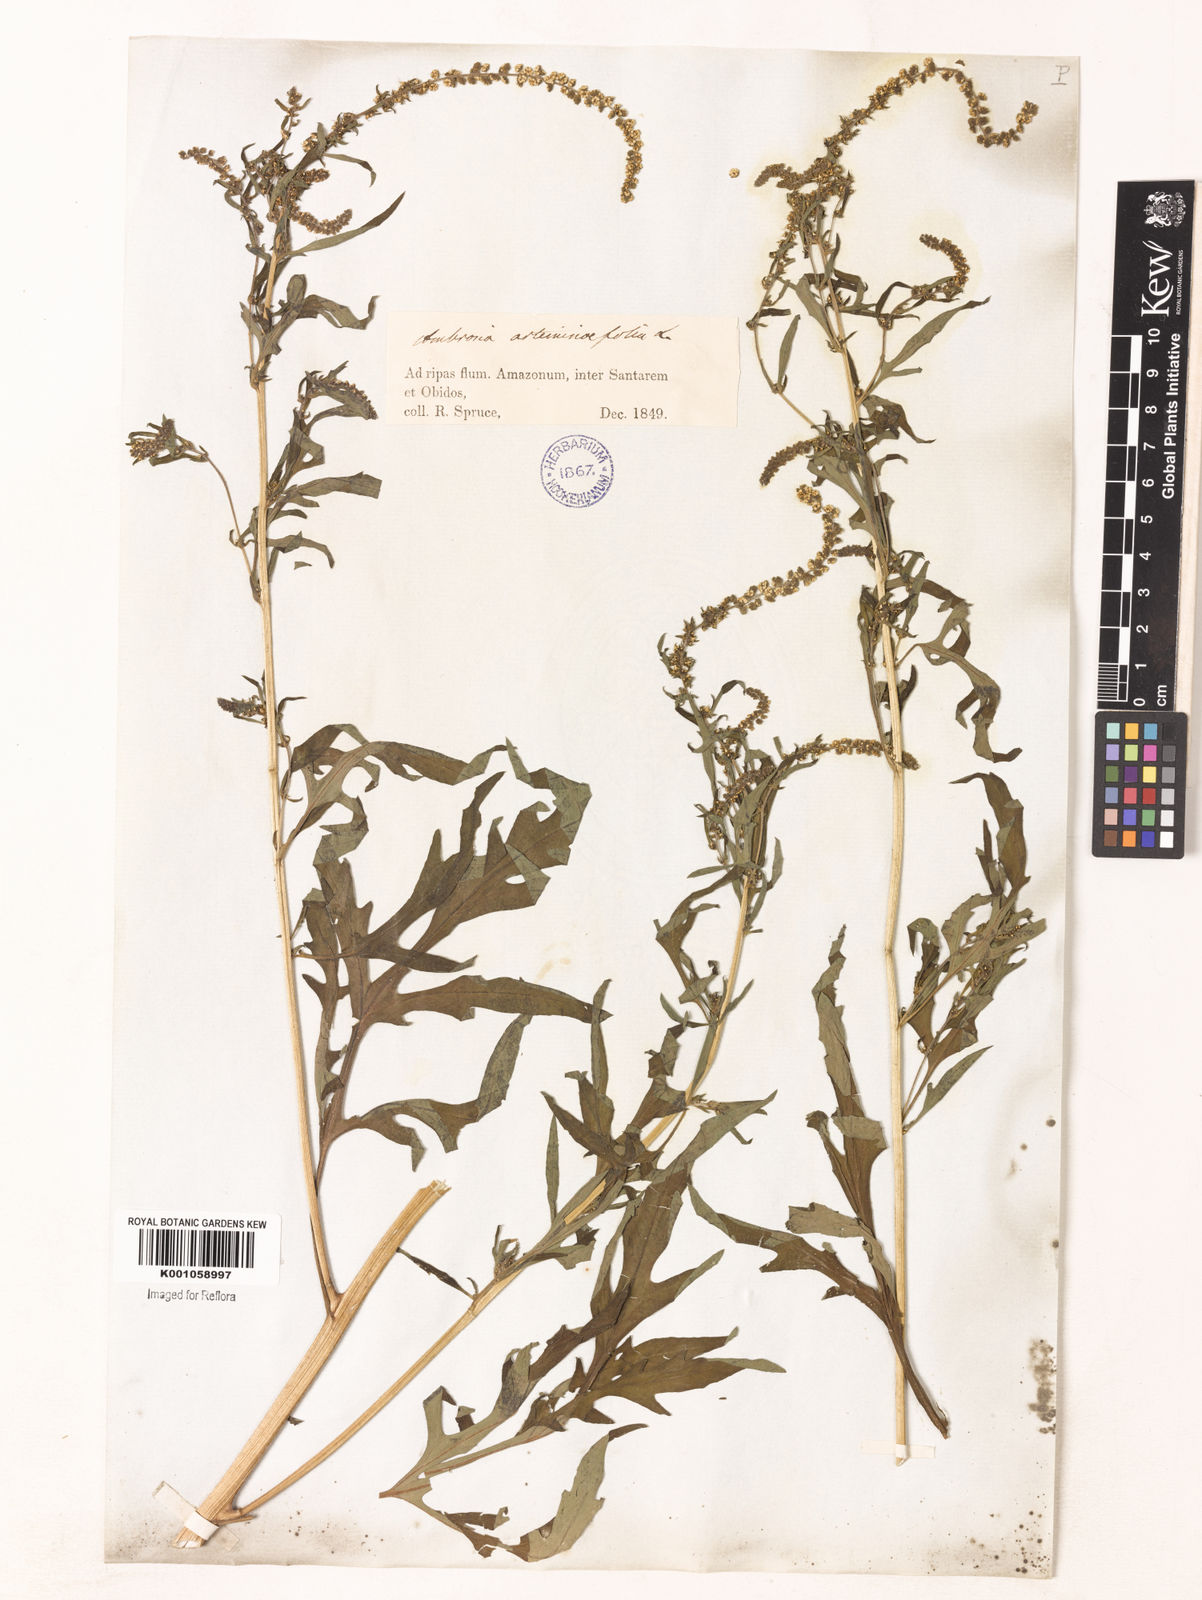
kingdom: Plantae
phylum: Tracheophyta
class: Magnoliopsida
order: Asterales
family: Asteraceae
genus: Ambrosia
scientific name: Ambrosia artemisiifolia
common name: Annual ragweed
